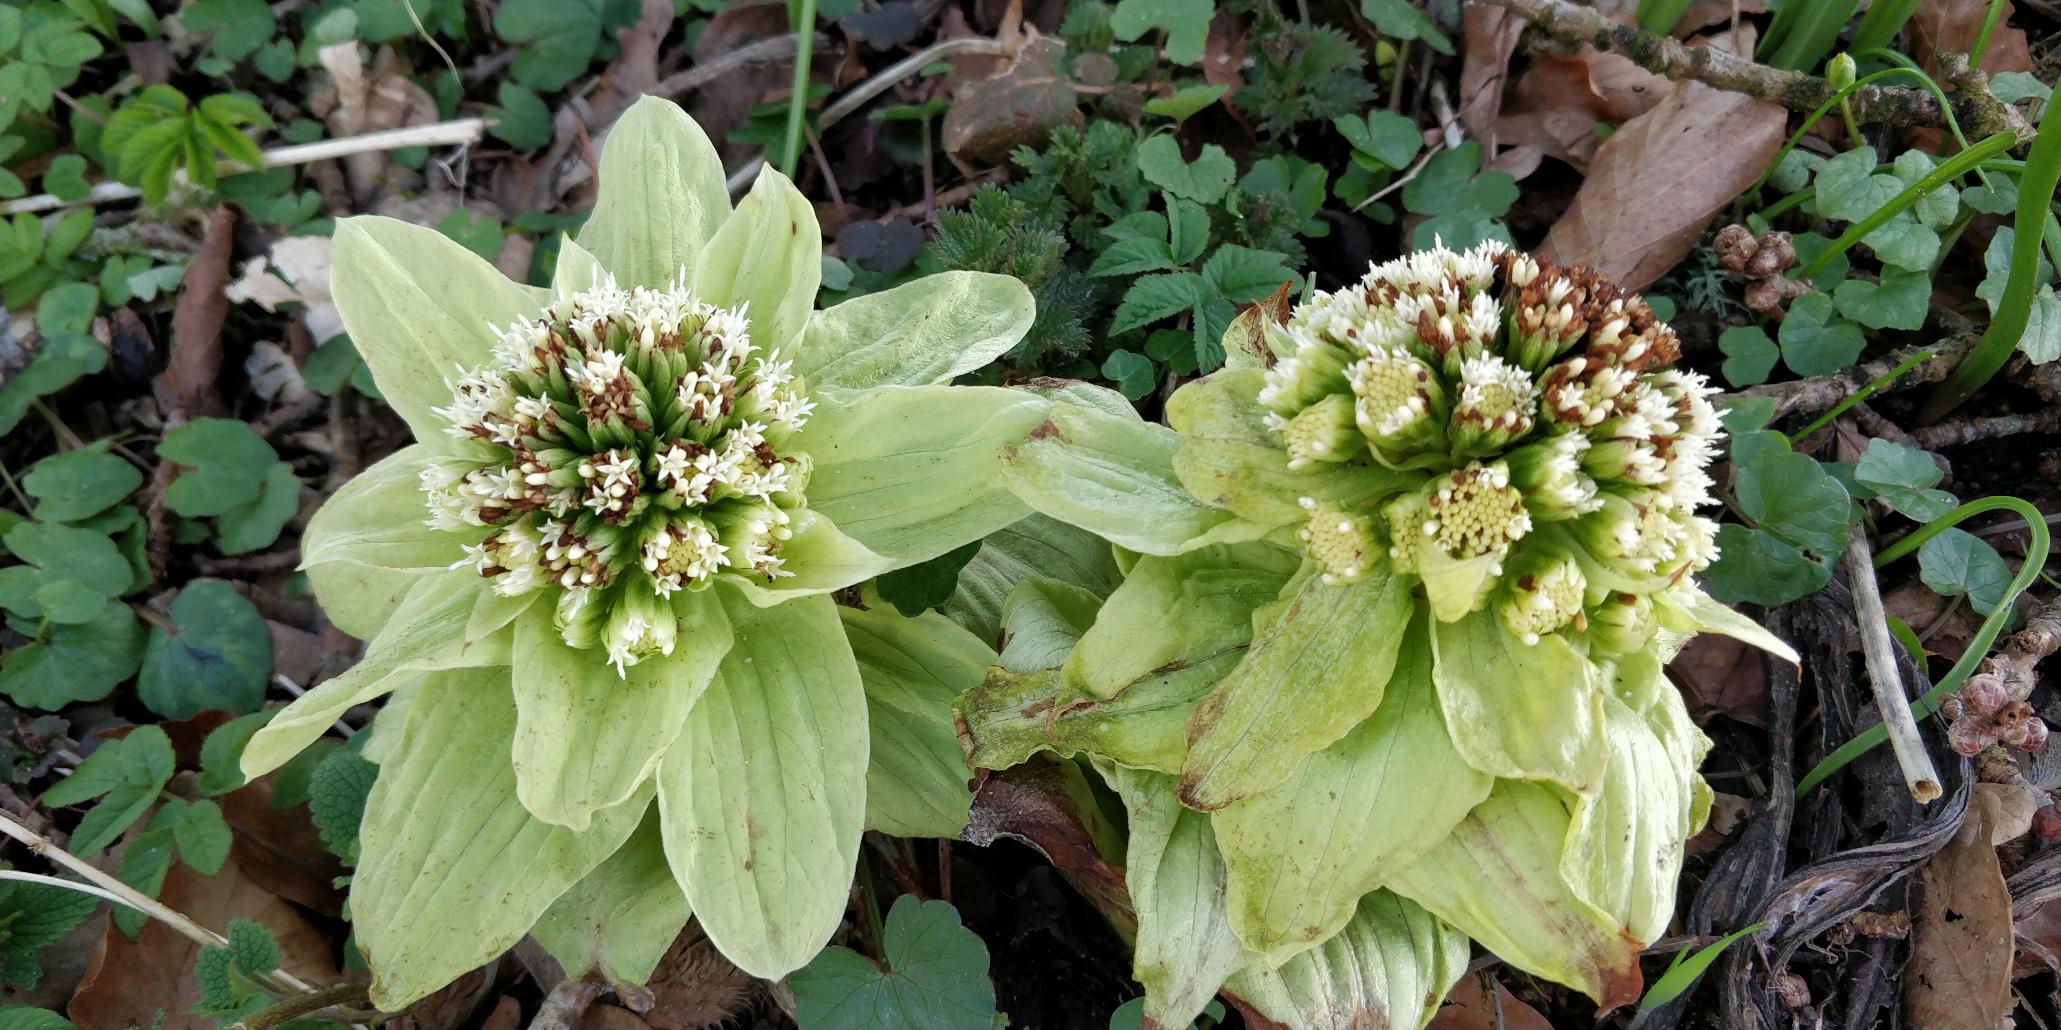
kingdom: Plantae
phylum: Tracheophyta
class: Magnoliopsida
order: Asterales
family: Asteraceae
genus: Petasites
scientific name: Petasites japonicus
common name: Japansk hestehov
